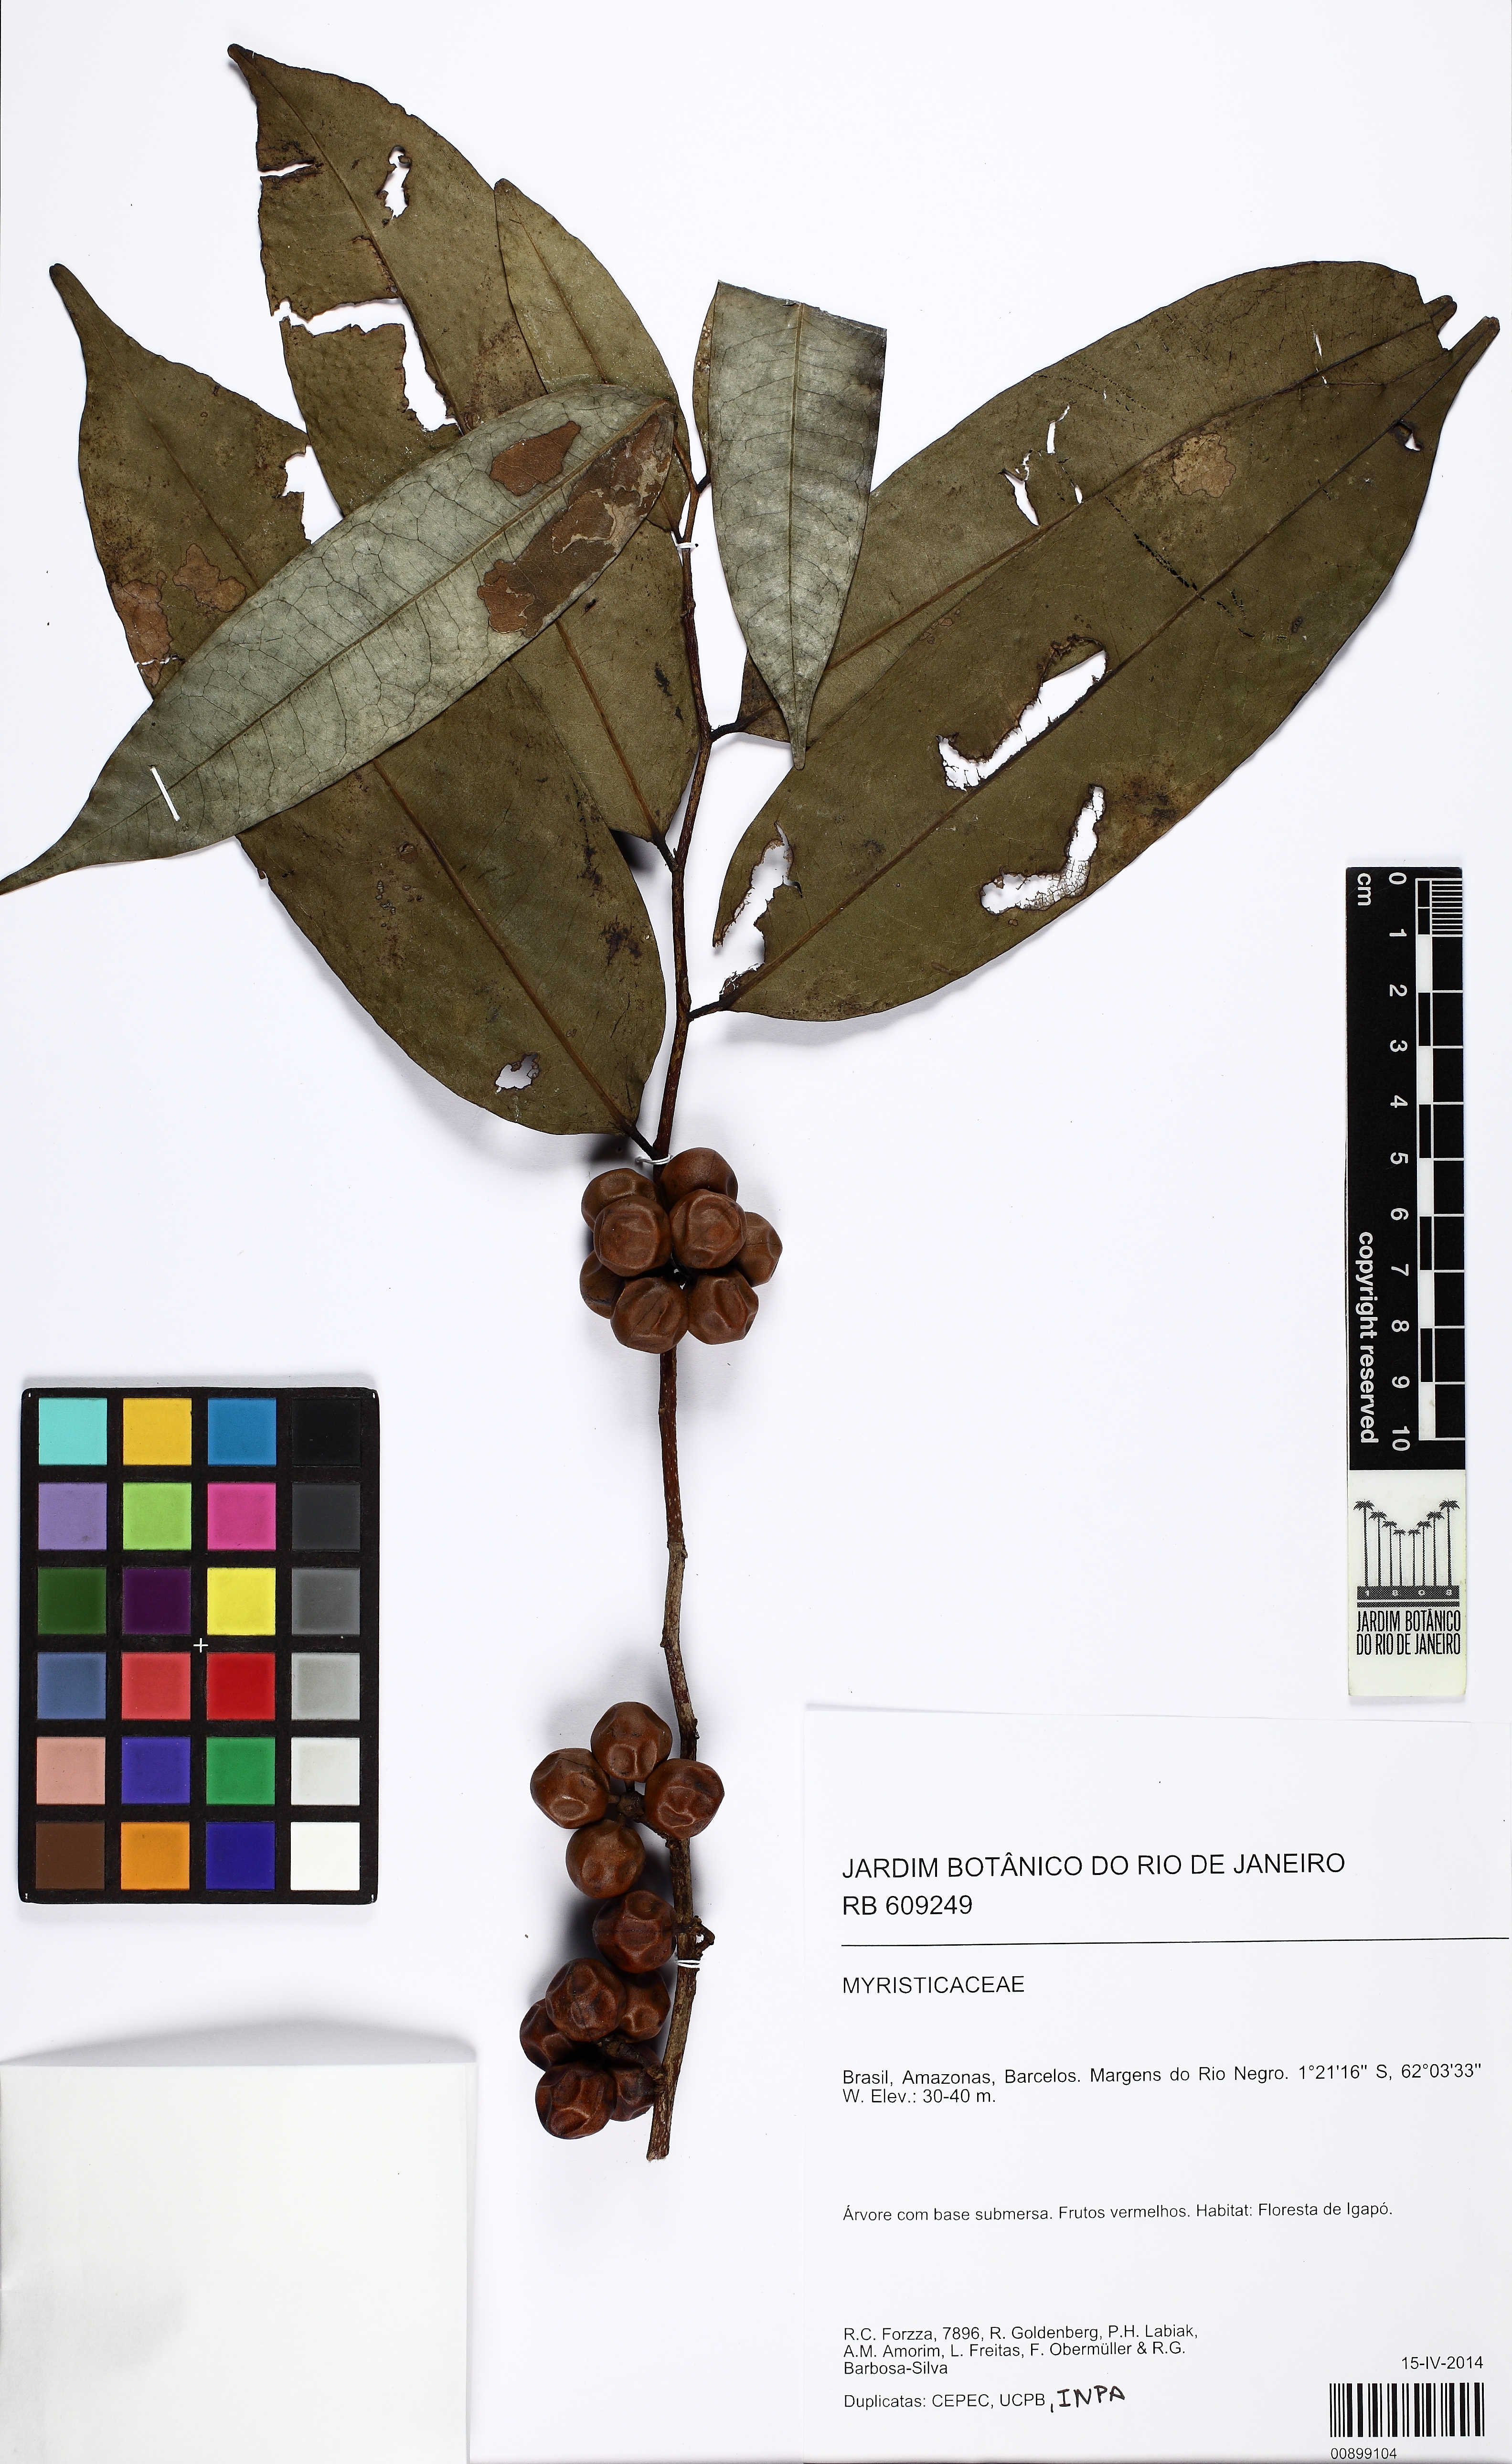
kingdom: Plantae
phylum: Tracheophyta
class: Magnoliopsida
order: Magnoliales
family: Myristicaceae
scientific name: Myristicaceae
